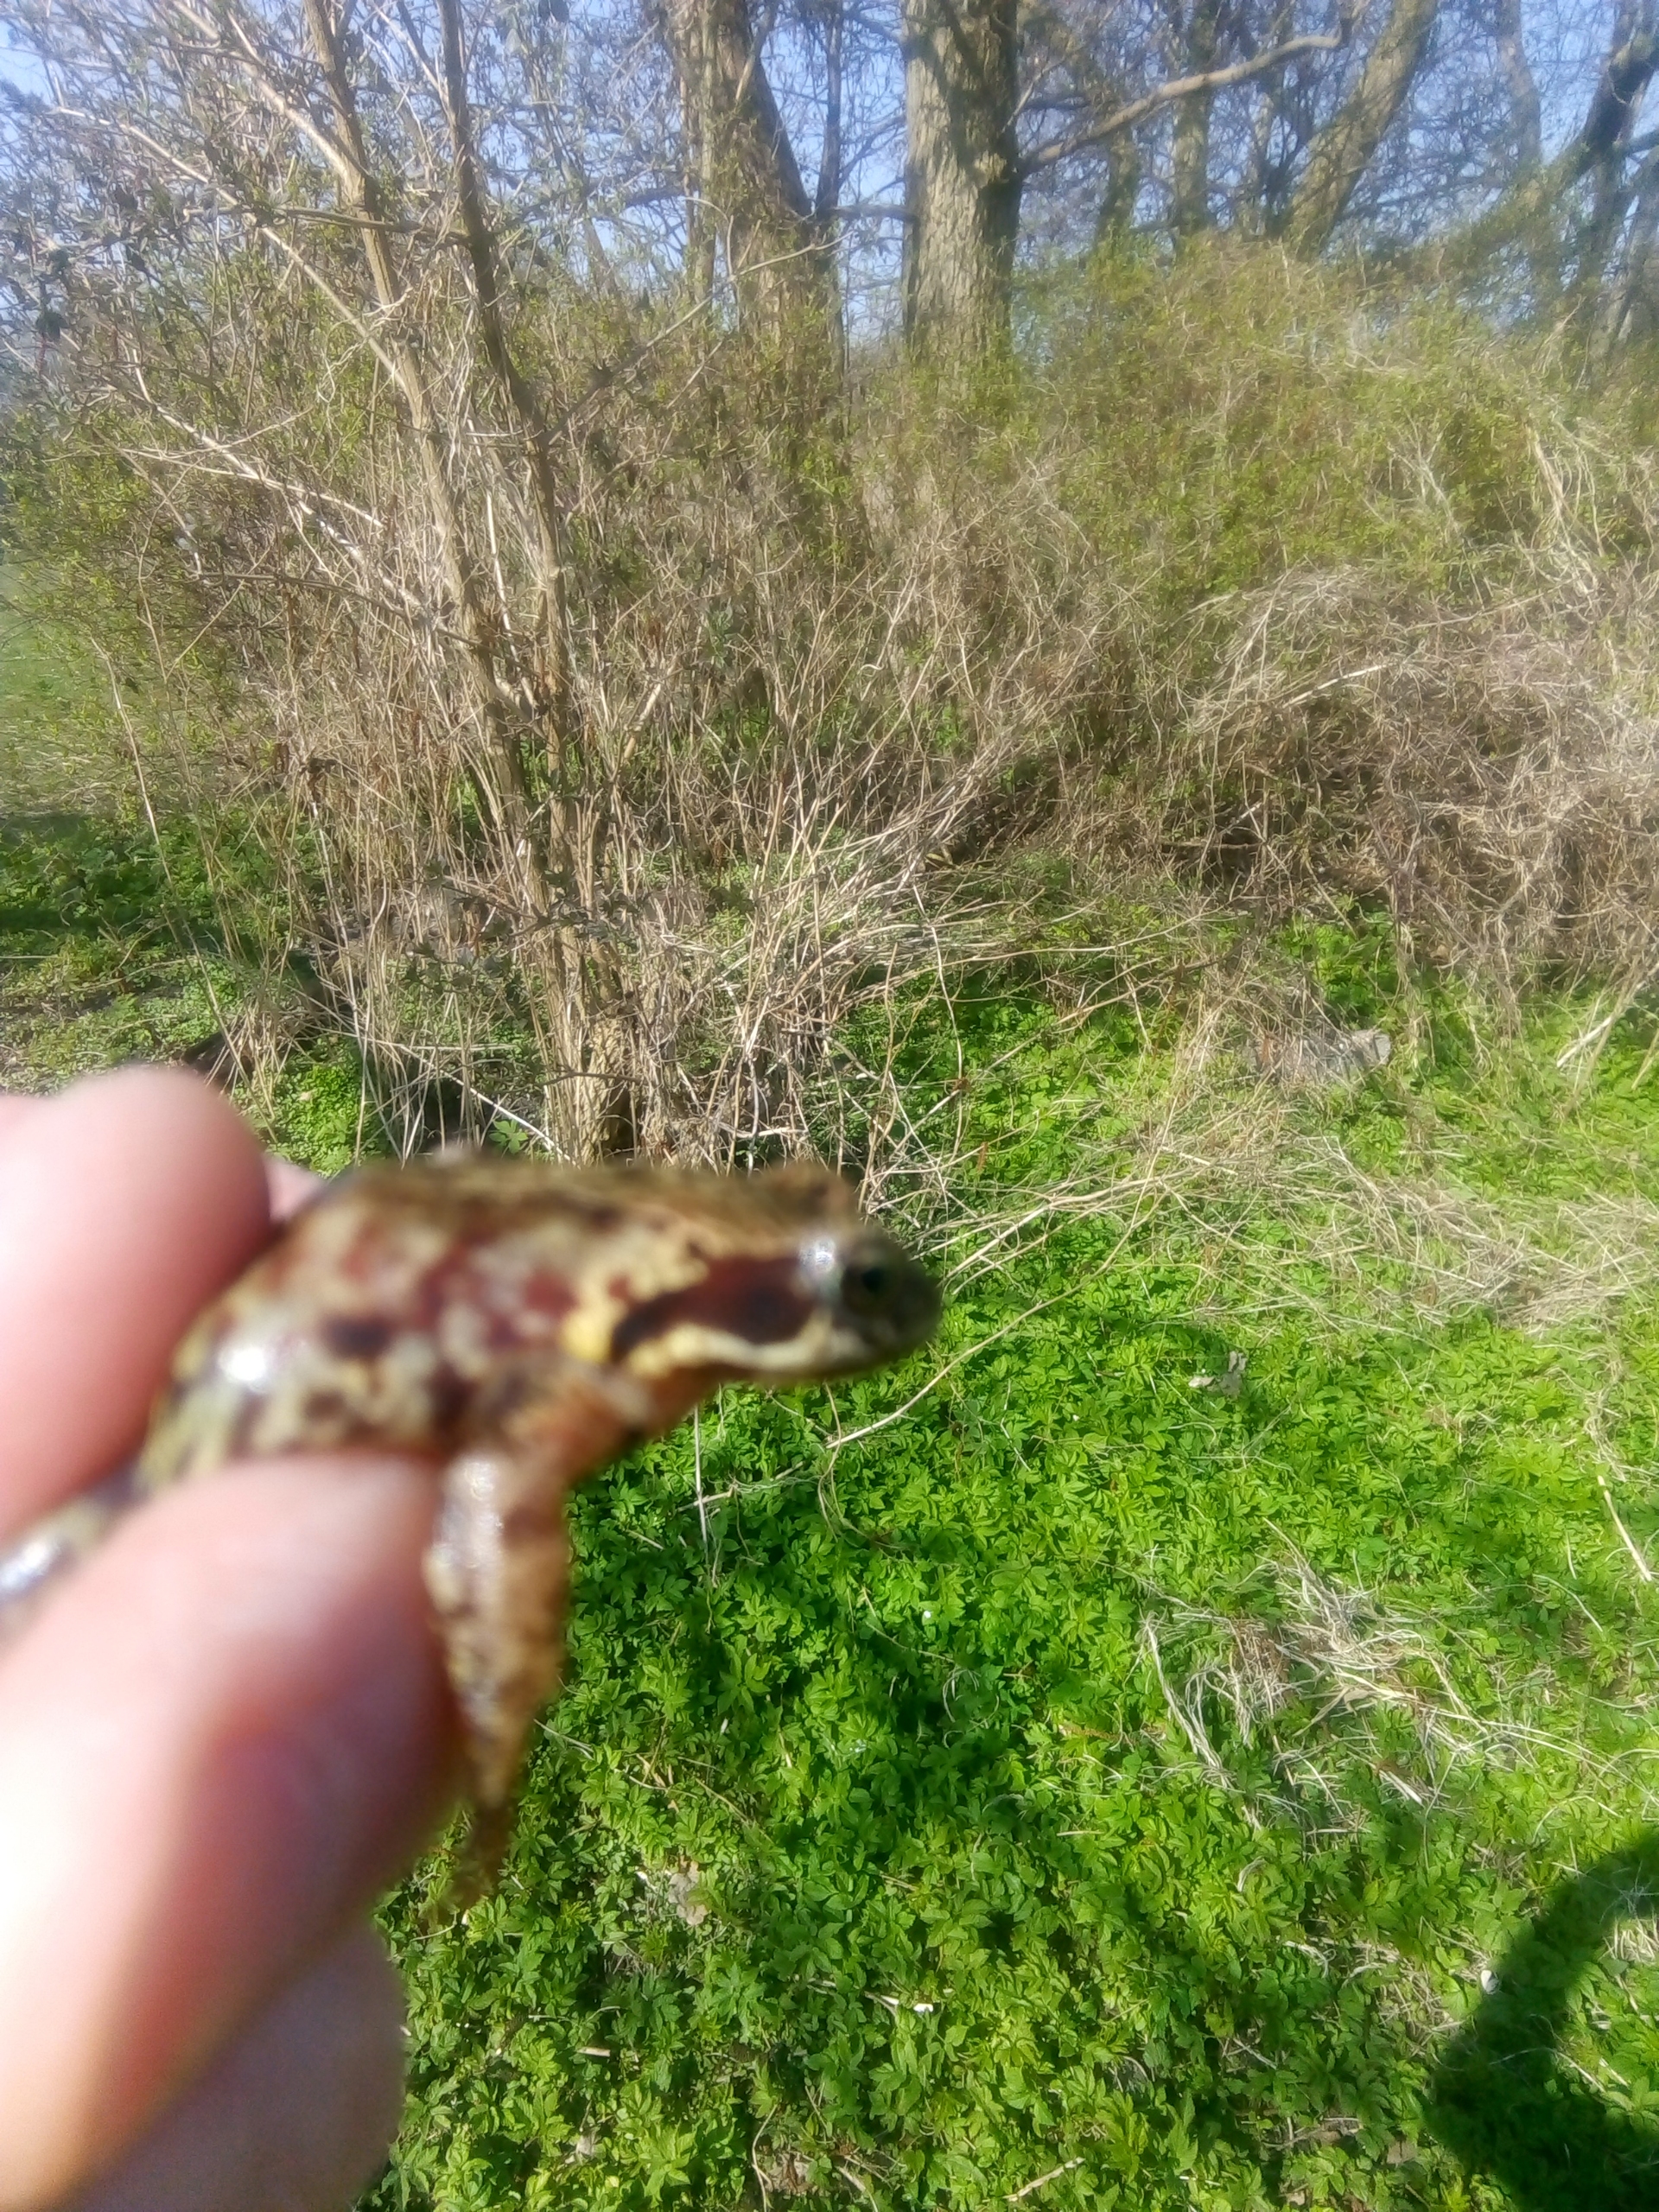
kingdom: Animalia
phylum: Chordata
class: Amphibia
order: Anura
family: Ranidae
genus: Rana
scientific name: Rana temporaria
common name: Butsnudet frø
